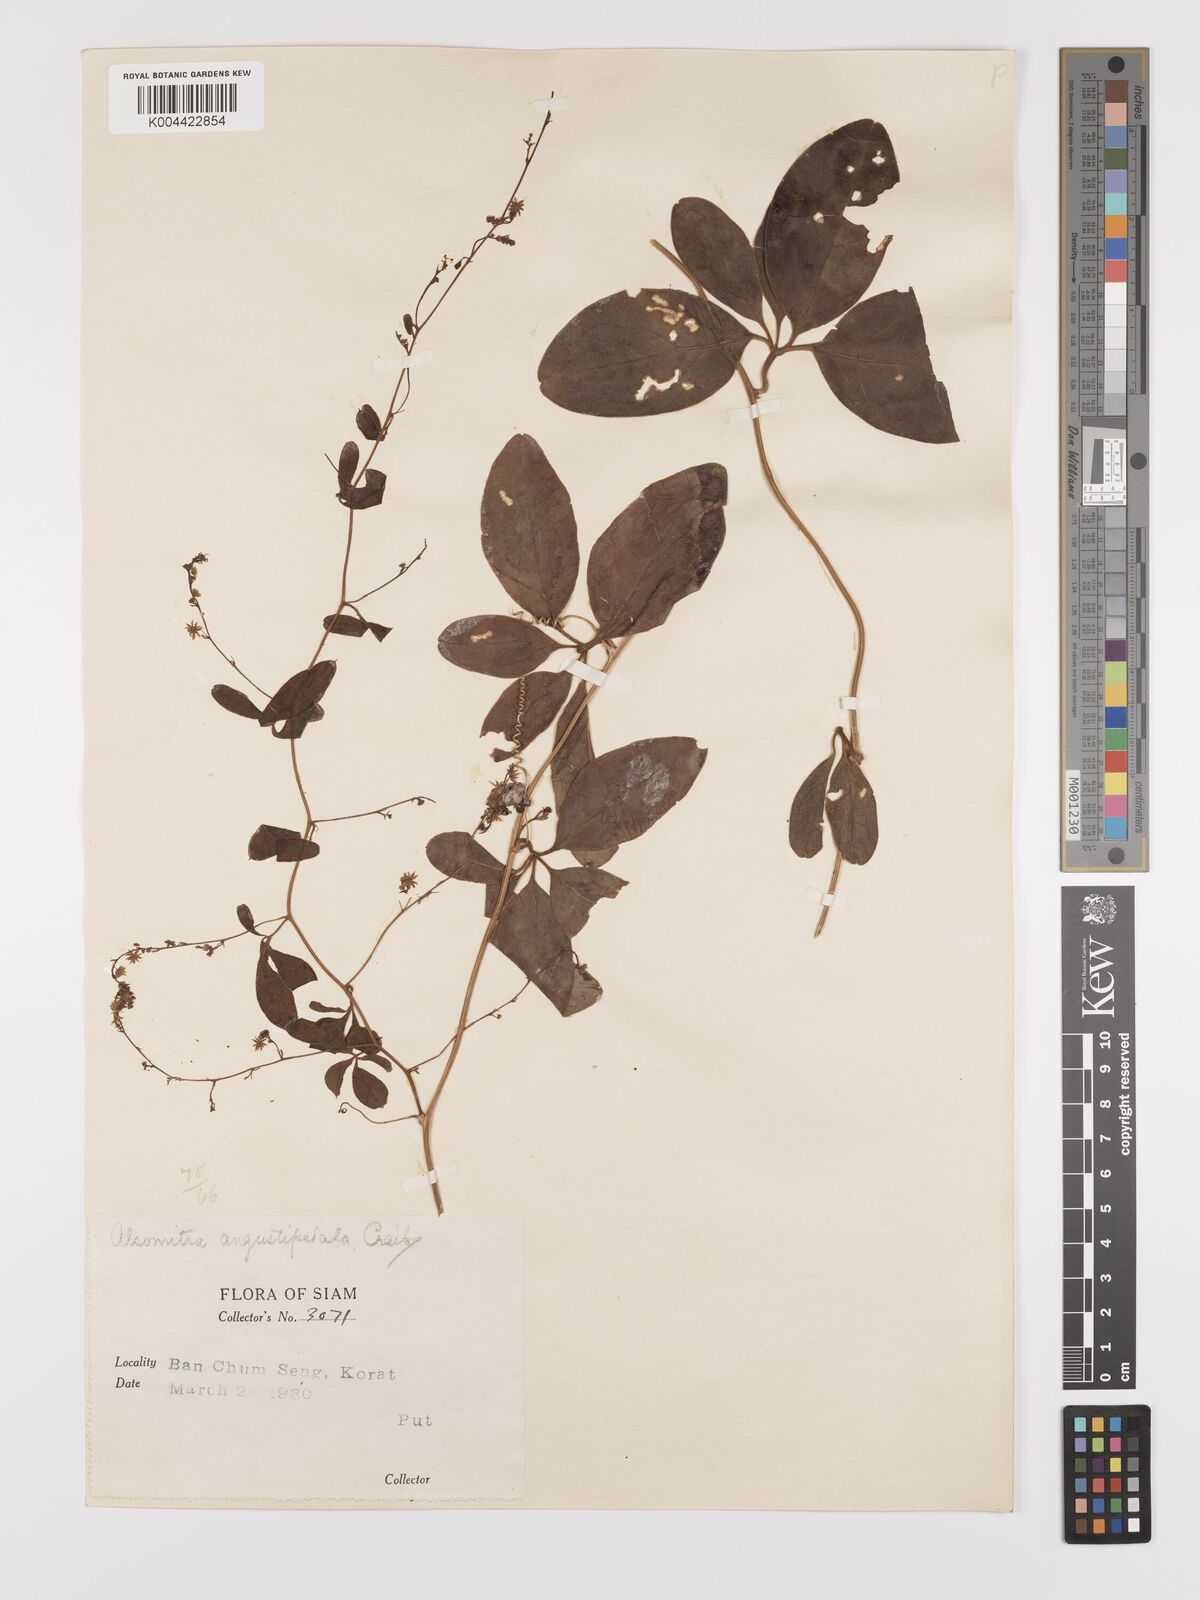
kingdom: Plantae
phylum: Tracheophyta
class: Magnoliopsida
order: Cucurbitales
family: Cucurbitaceae
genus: Neoalsomitra
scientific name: Neoalsomitra angustipetala
